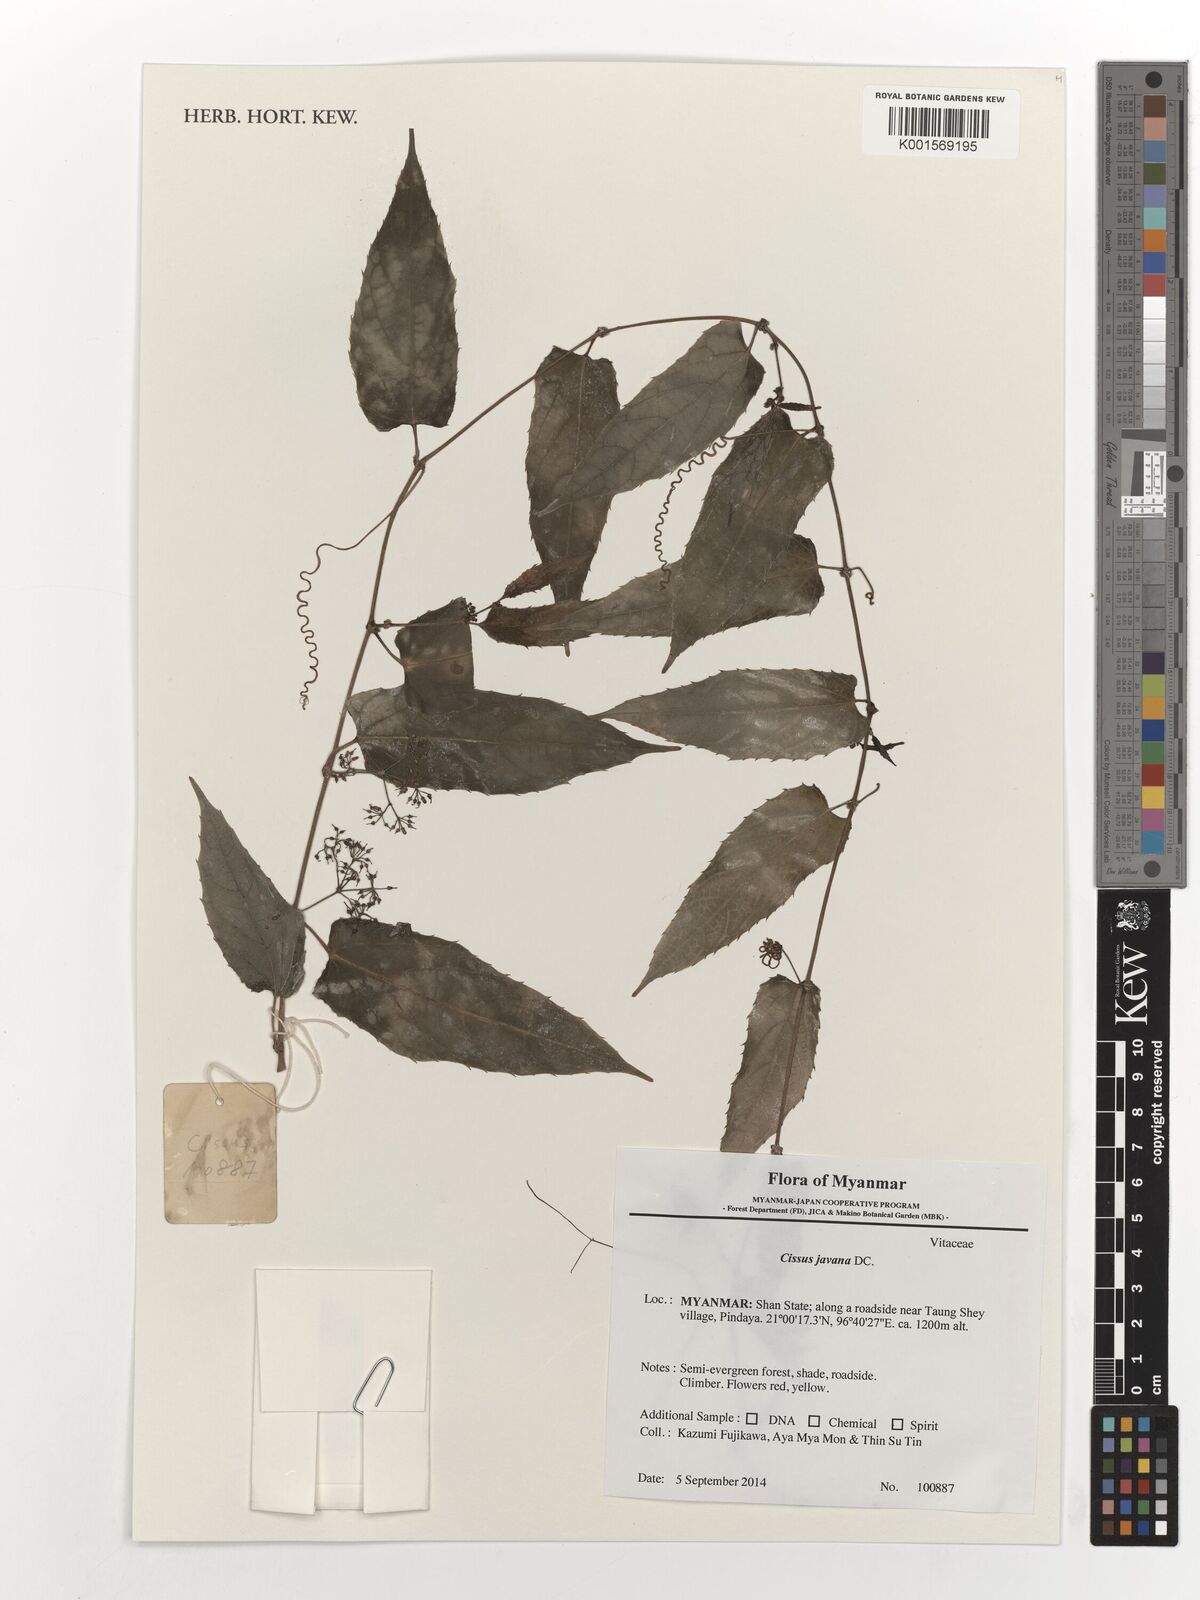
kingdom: Plantae
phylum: Tracheophyta
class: Magnoliopsida
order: Vitales
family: Vitaceae
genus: Cissus
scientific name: Cissus discolor
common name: Climbing-begonia
